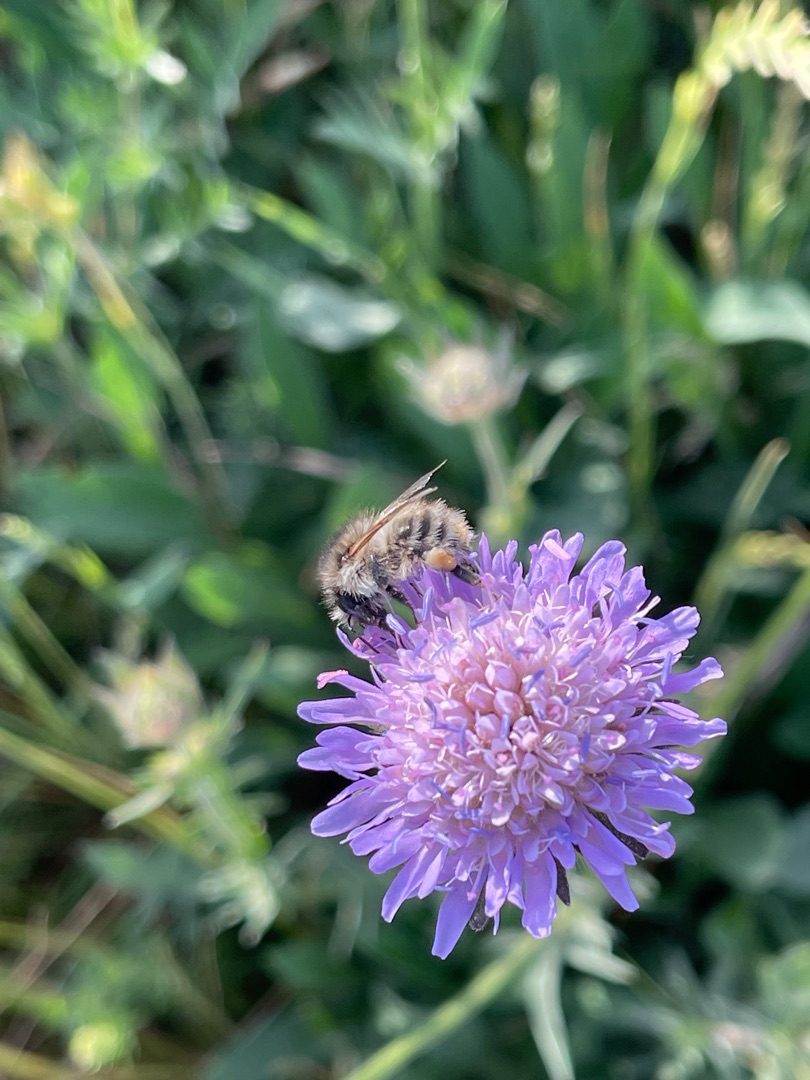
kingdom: Plantae
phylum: Tracheophyta
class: Magnoliopsida
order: Dipsacales
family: Caprifoliaceae
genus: Knautia
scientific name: Knautia arvensis
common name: Blåhat
